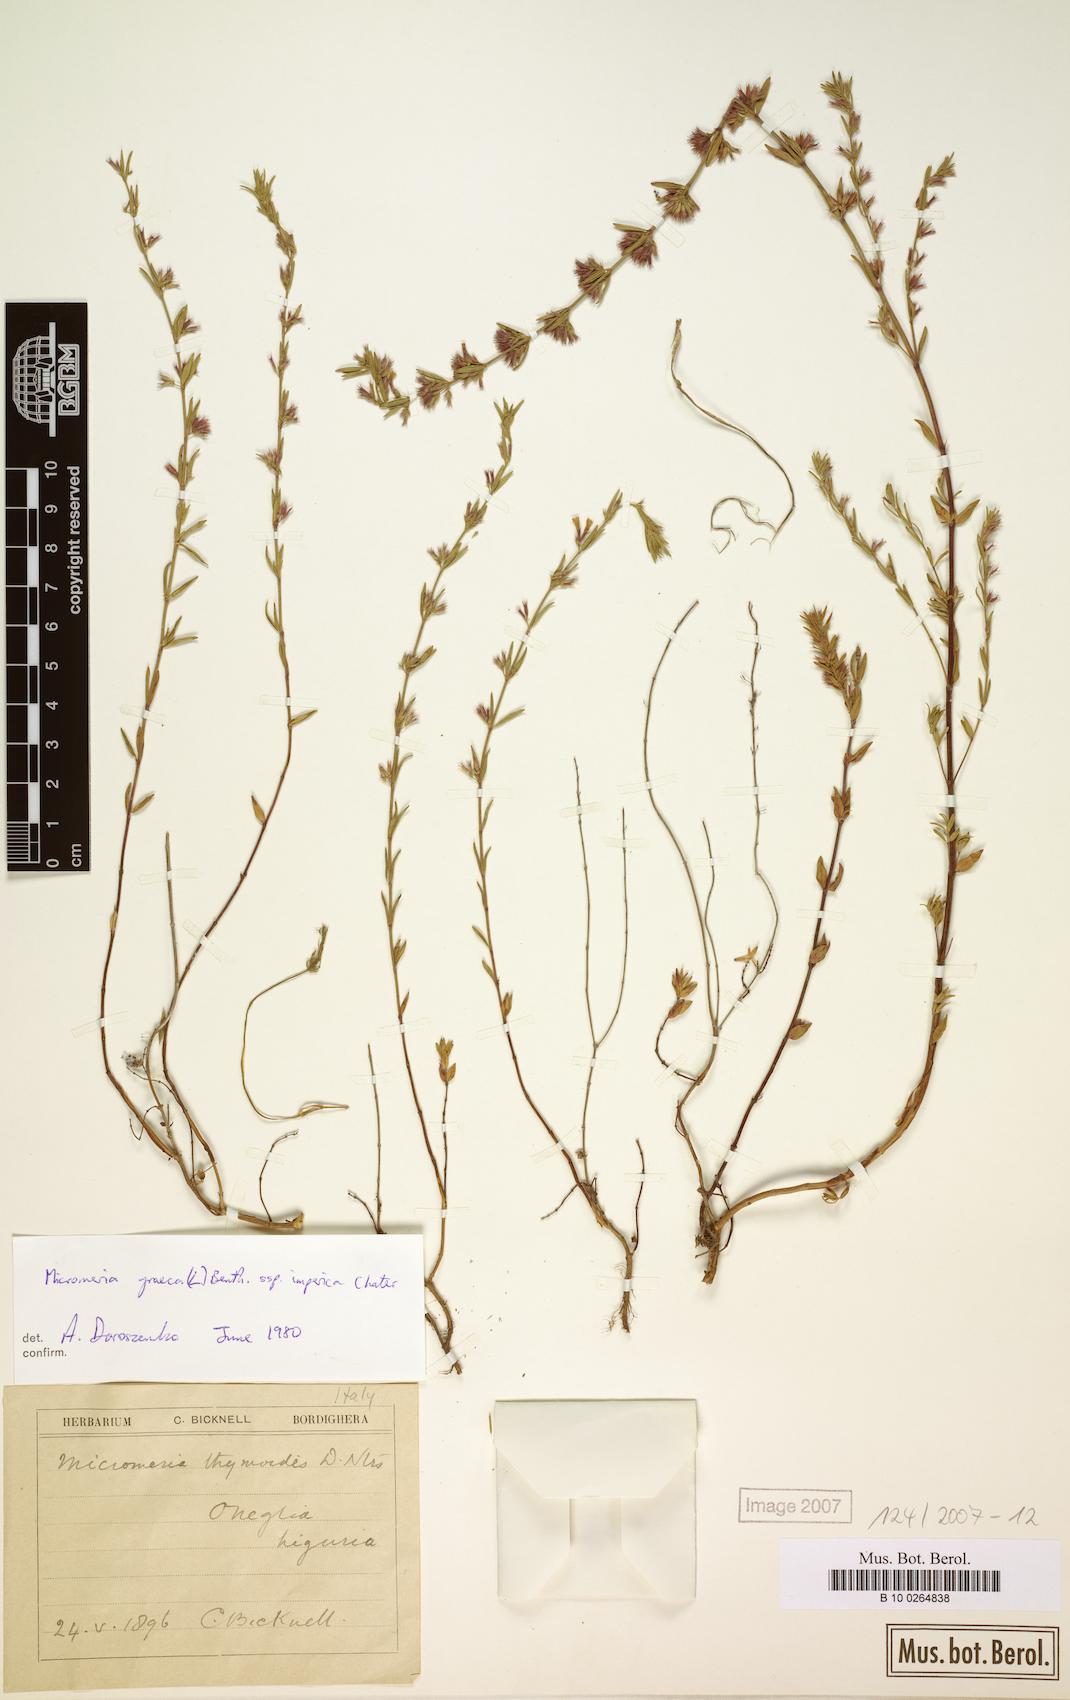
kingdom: Plantae
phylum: Tracheophyta
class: Magnoliopsida
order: Lamiales
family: Lamiaceae
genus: Micromeria
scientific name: Micromeria graeca
